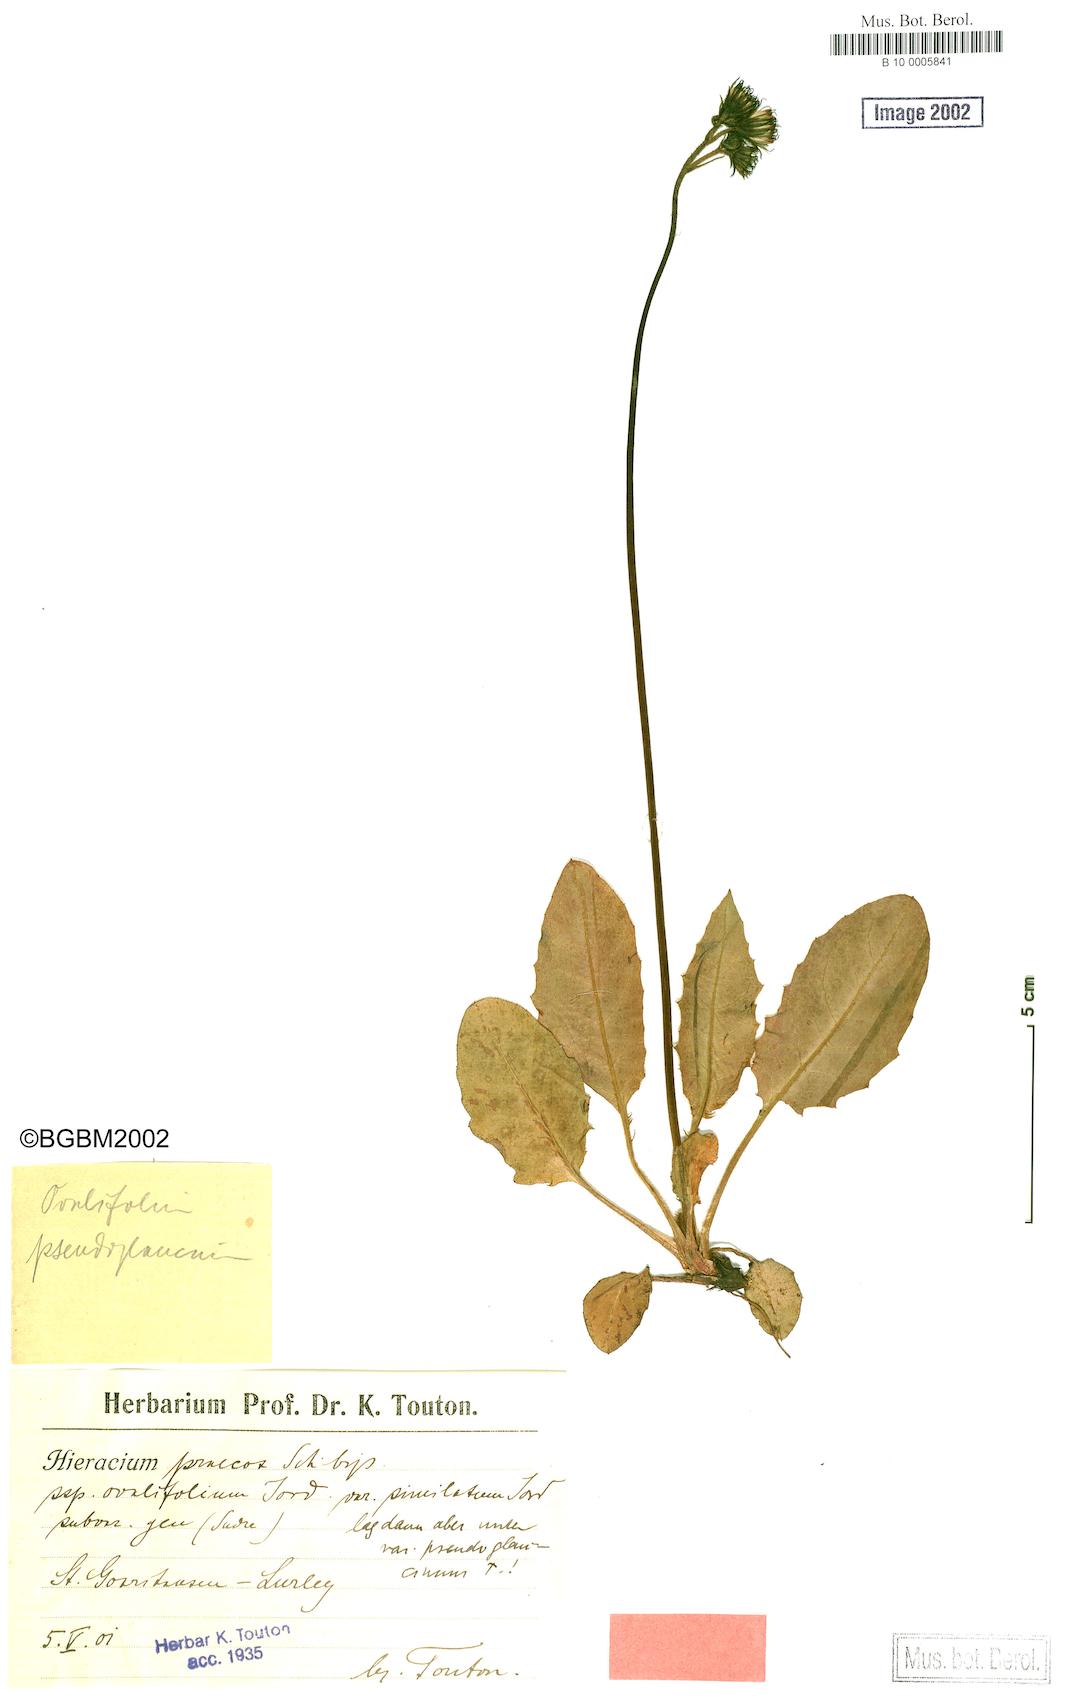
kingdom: Plantae
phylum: Tracheophyta
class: Magnoliopsida
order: Asterales
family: Asteraceae
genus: Hieracium
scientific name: Hieracium praecox
